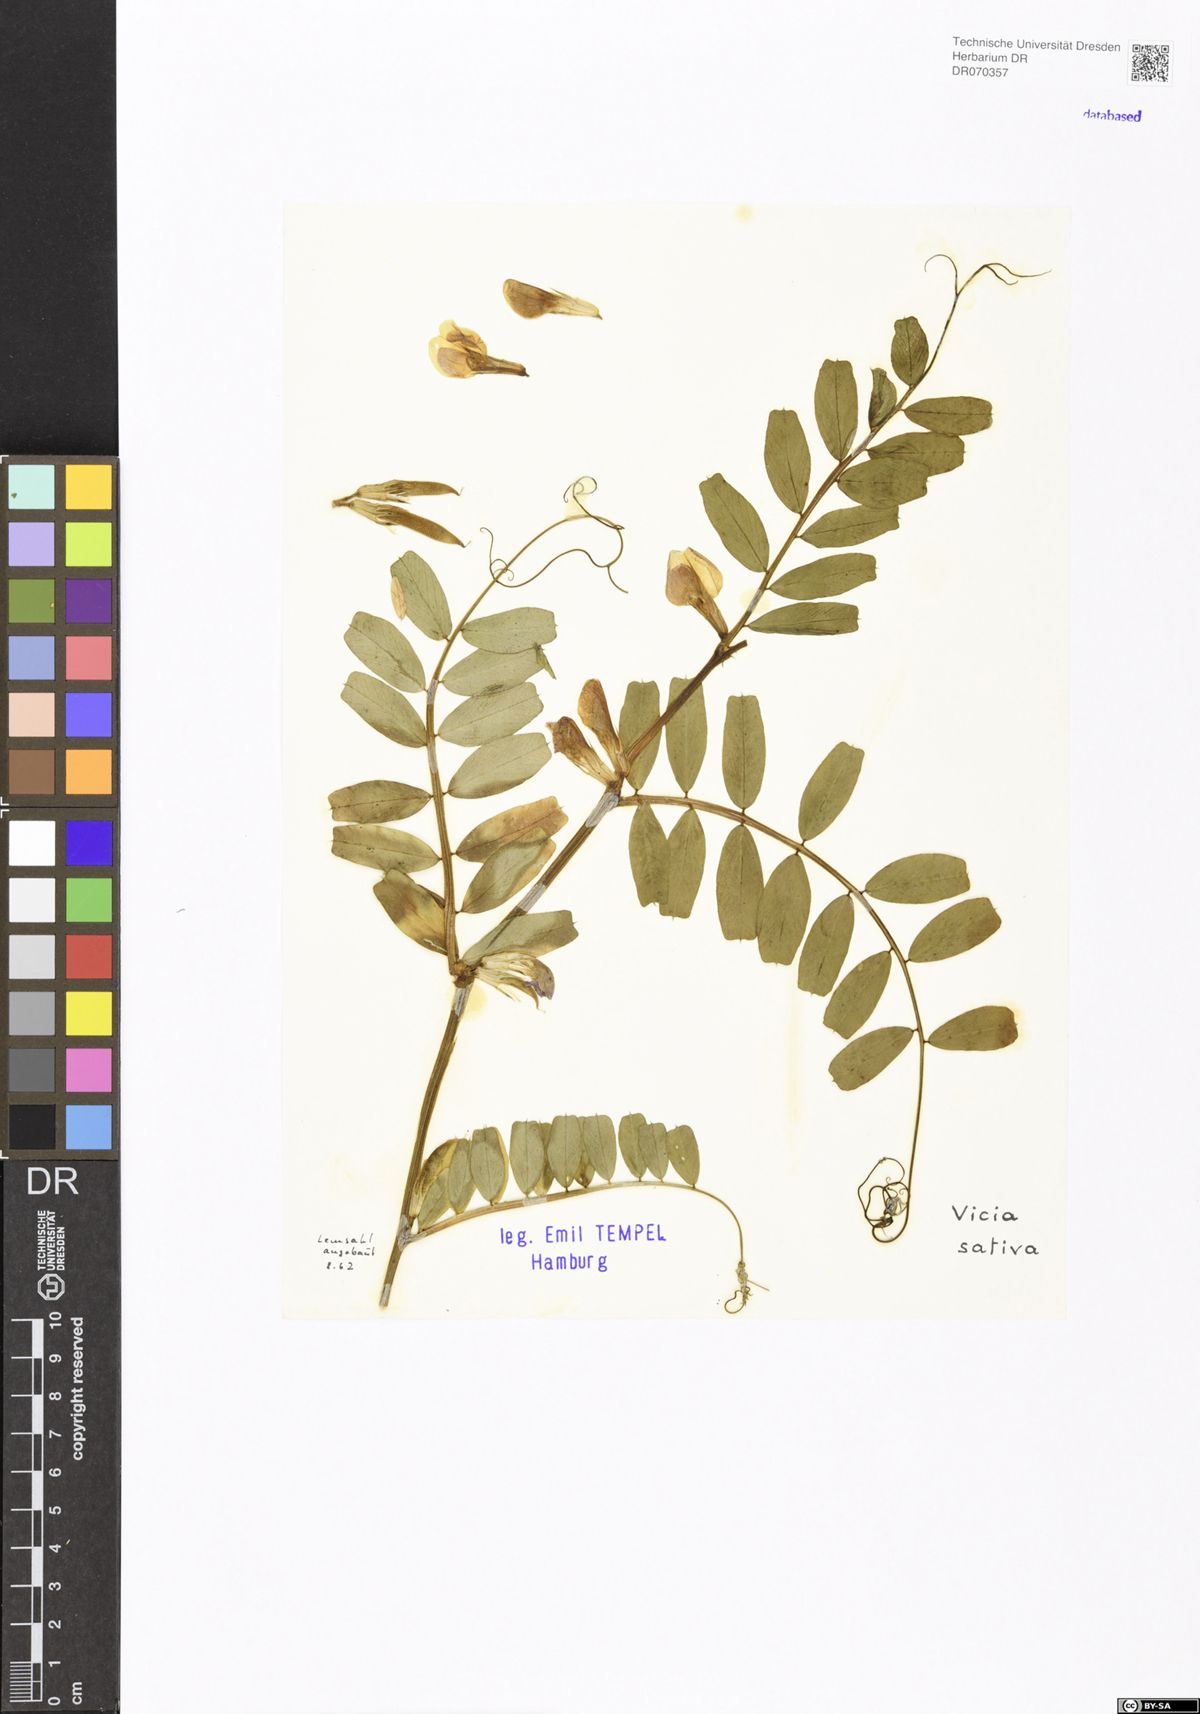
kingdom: Plantae
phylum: Tracheophyta
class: Magnoliopsida
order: Fabales
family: Fabaceae
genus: Vicia
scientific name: Vicia sativa
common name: Garden vetch
